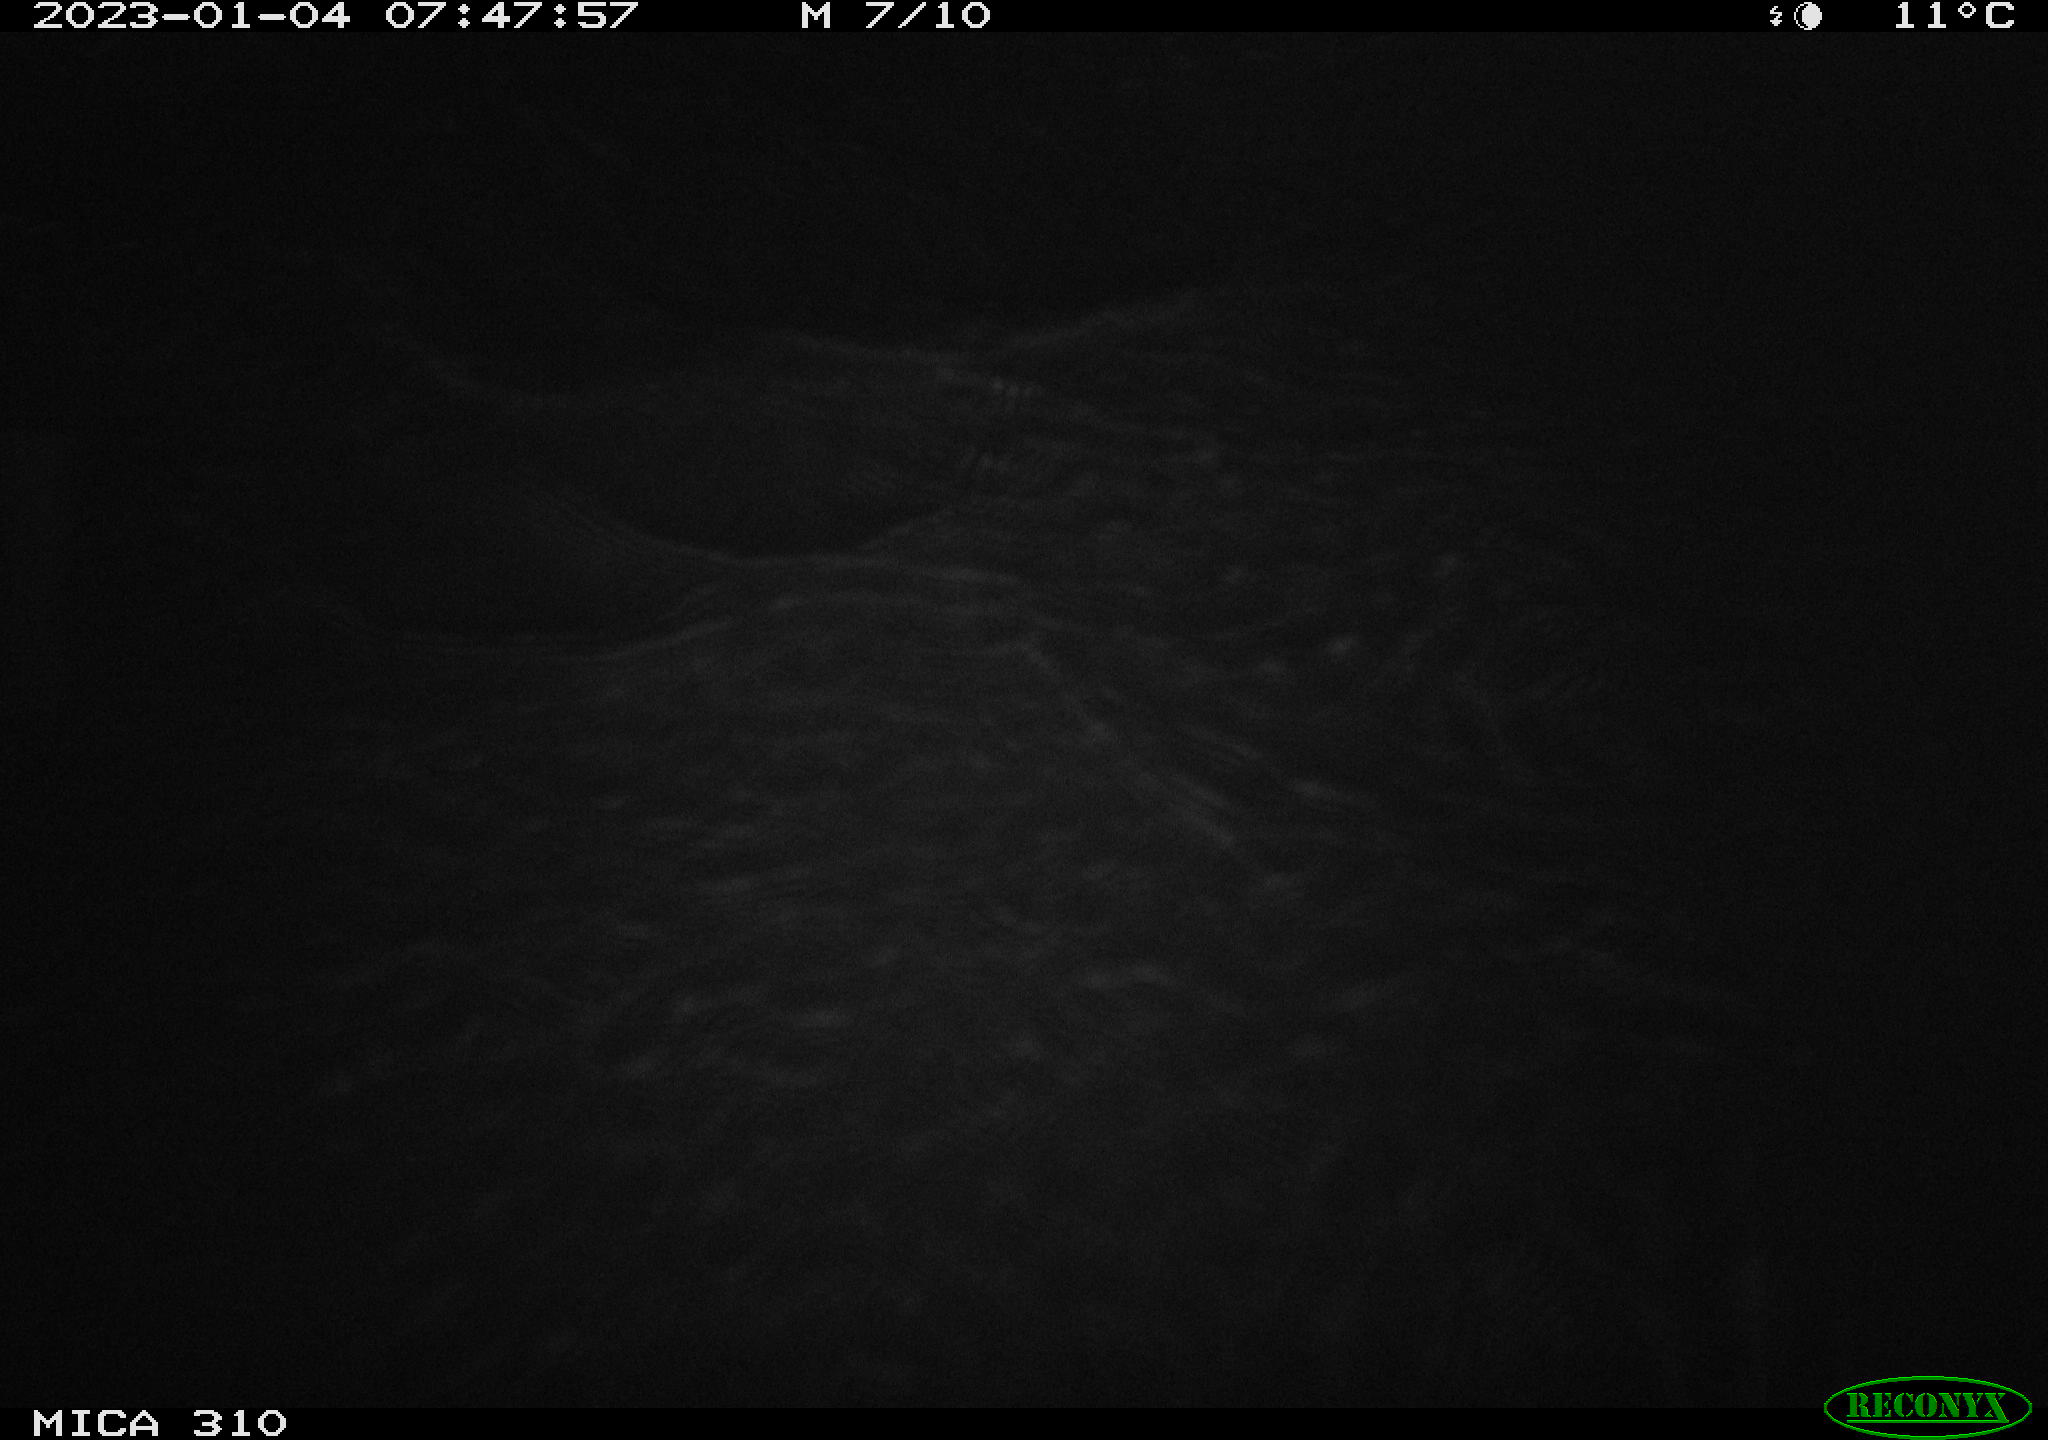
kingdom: Animalia
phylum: Chordata
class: Aves
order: Anseriformes
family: Anatidae
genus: Anas
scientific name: Anas
